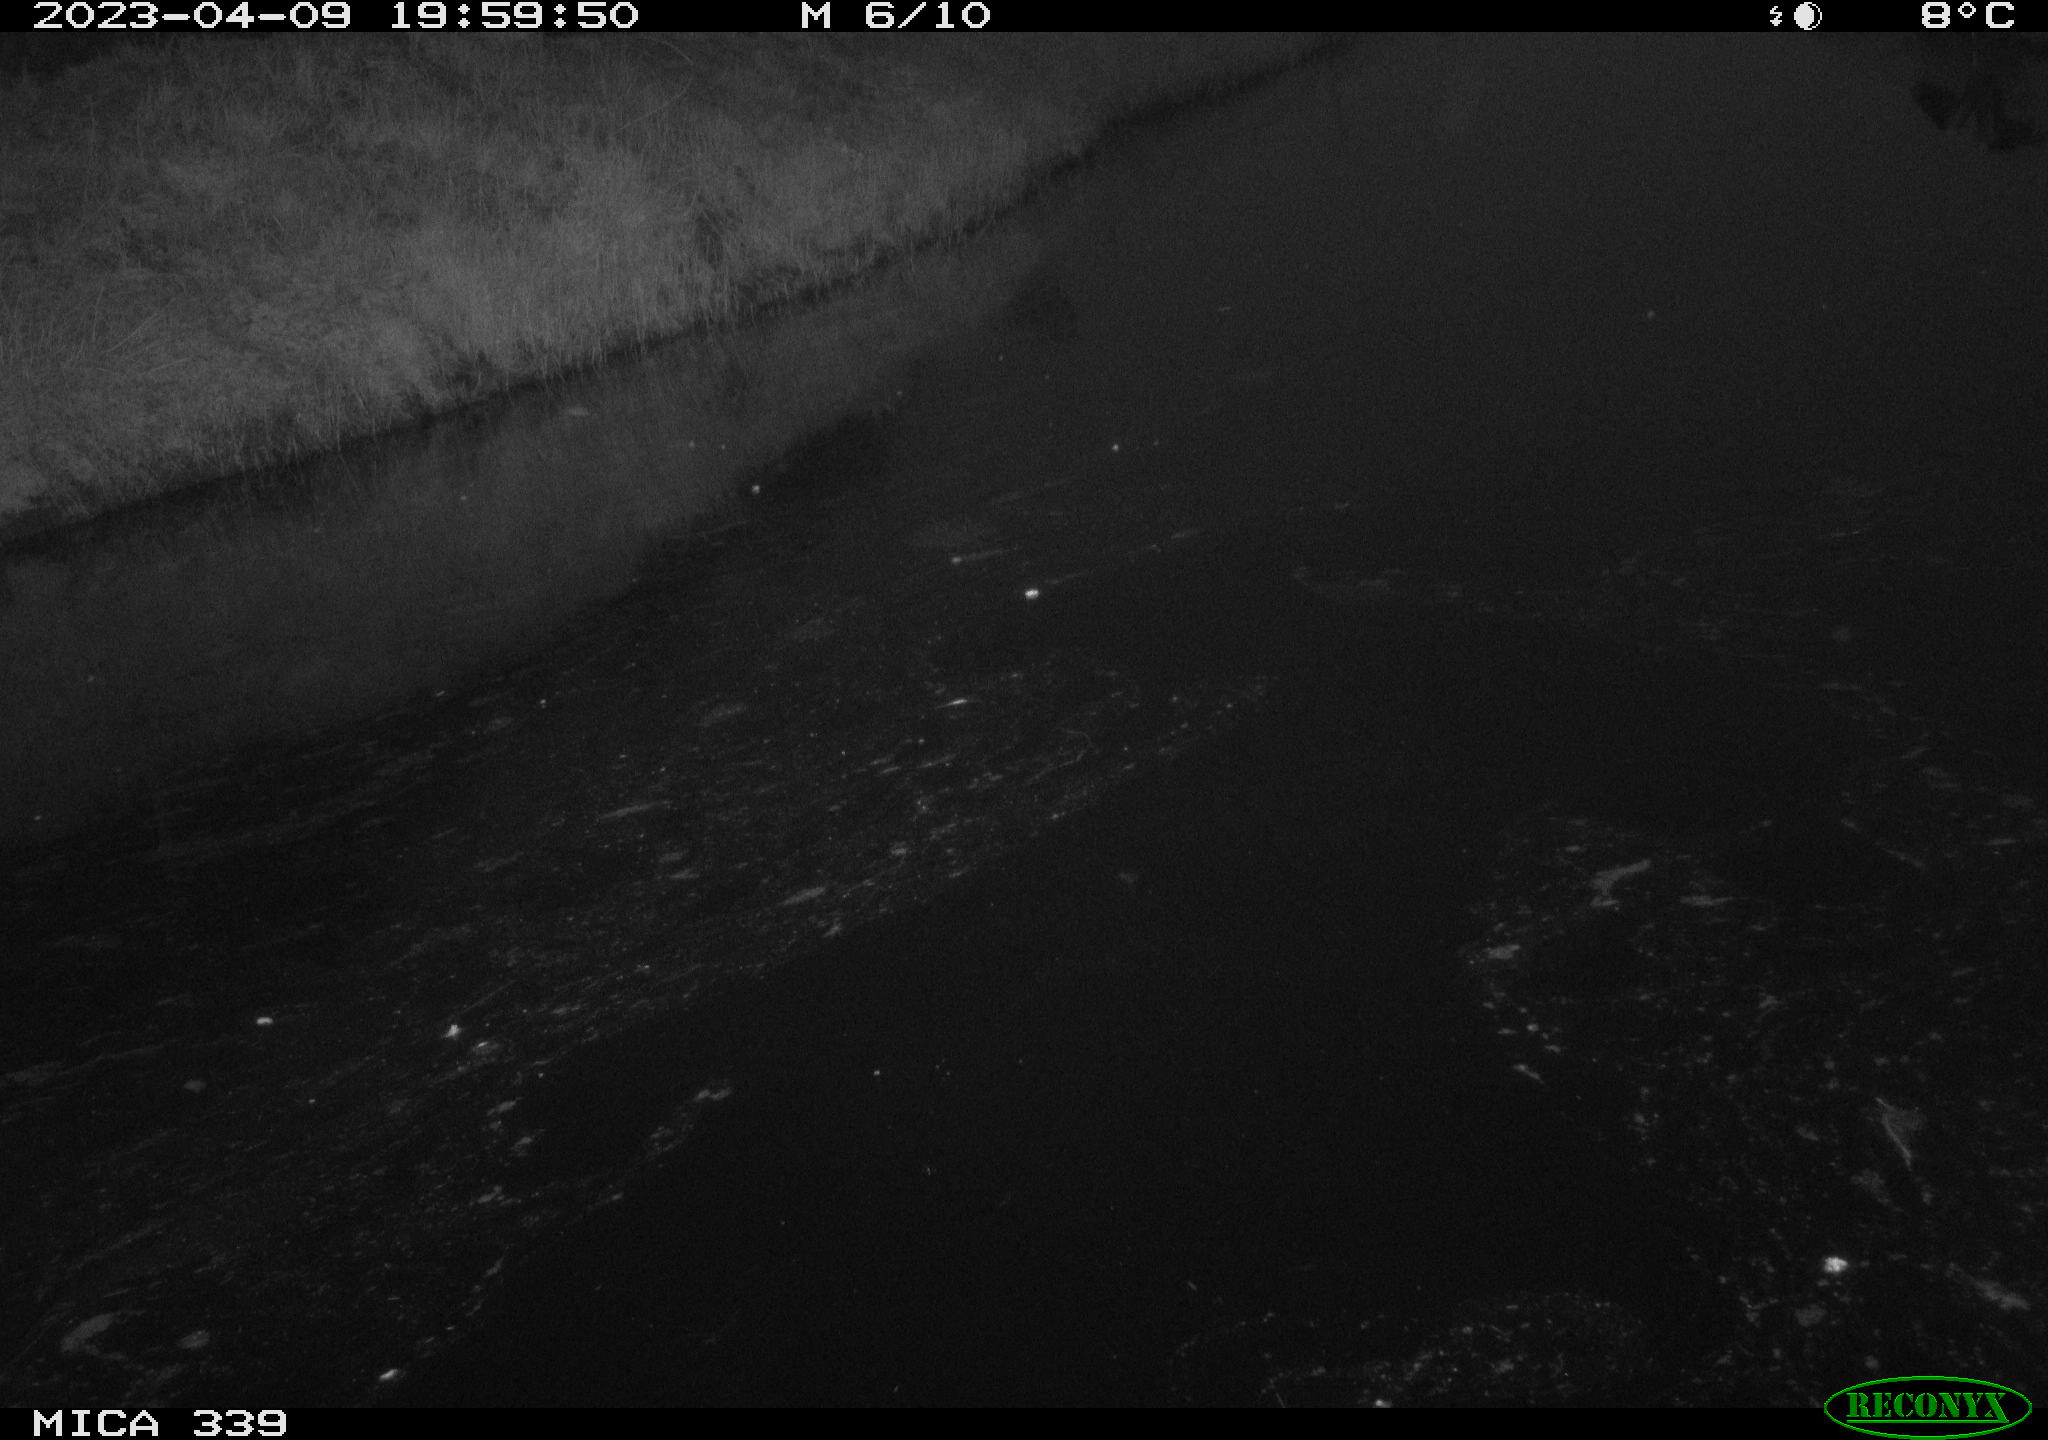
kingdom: Animalia
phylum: Chordata
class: Aves
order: Pelecaniformes
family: Ardeidae
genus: Ardea
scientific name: Ardea cinerea
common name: Grey heron
